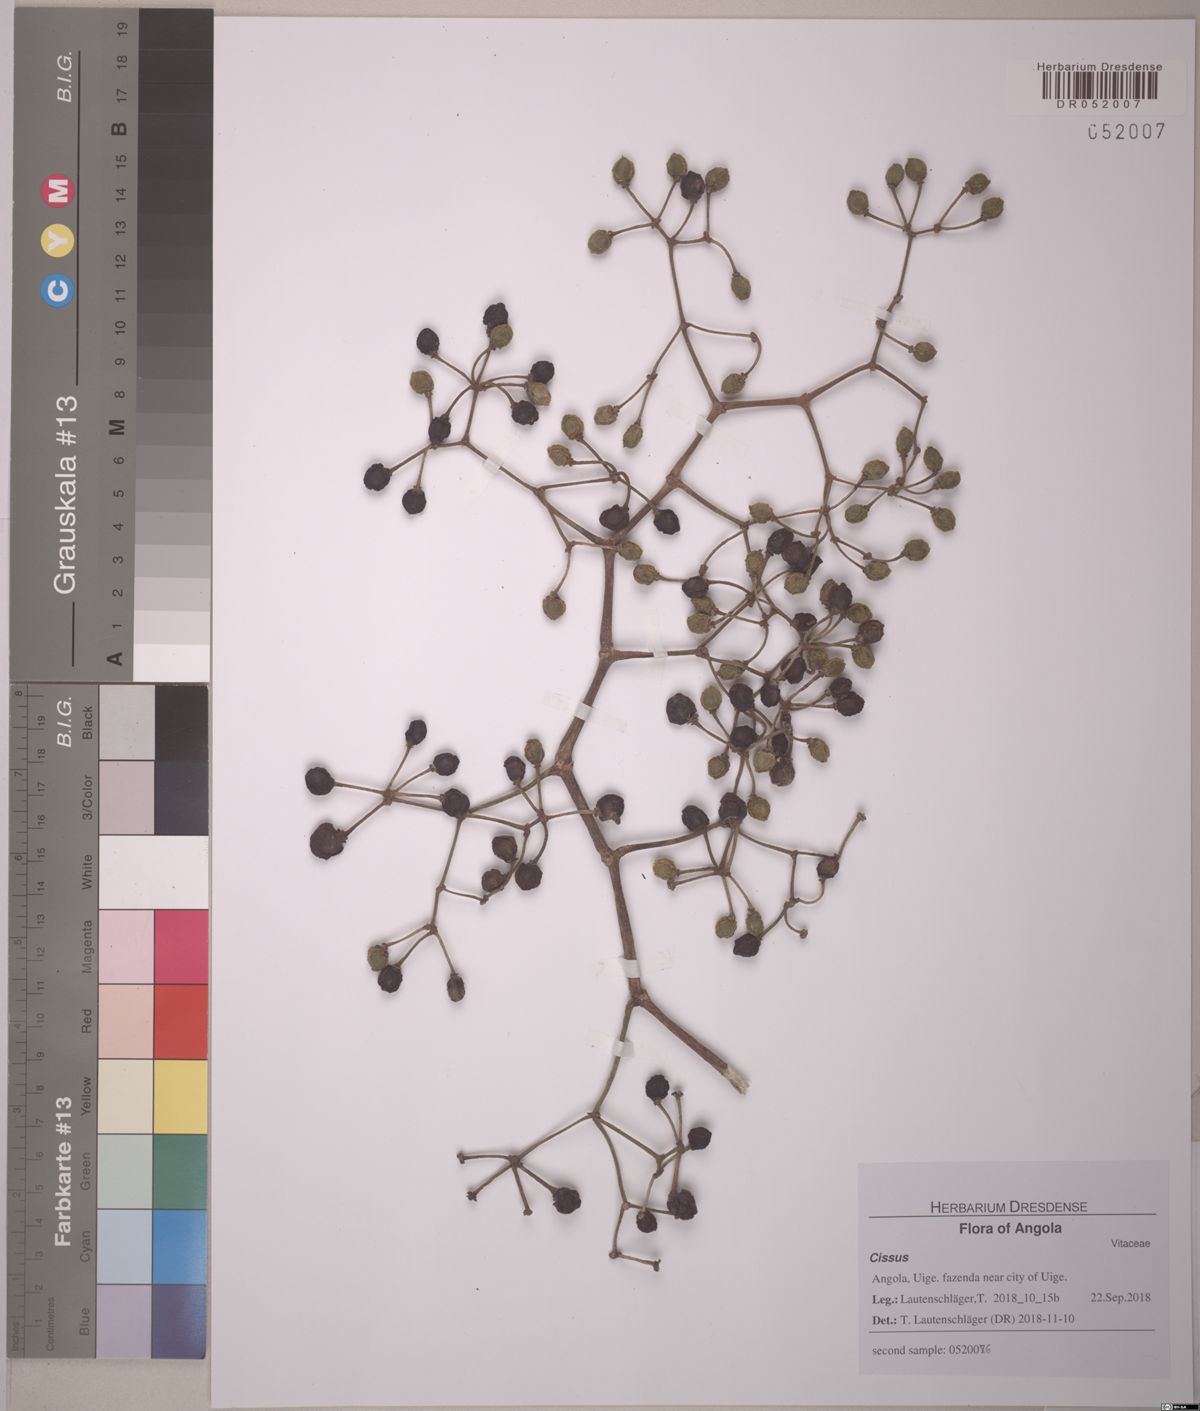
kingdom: Plantae
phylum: Tracheophyta
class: Magnoliopsida
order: Vitales
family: Vitaceae
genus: Cissus
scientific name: Cissus
